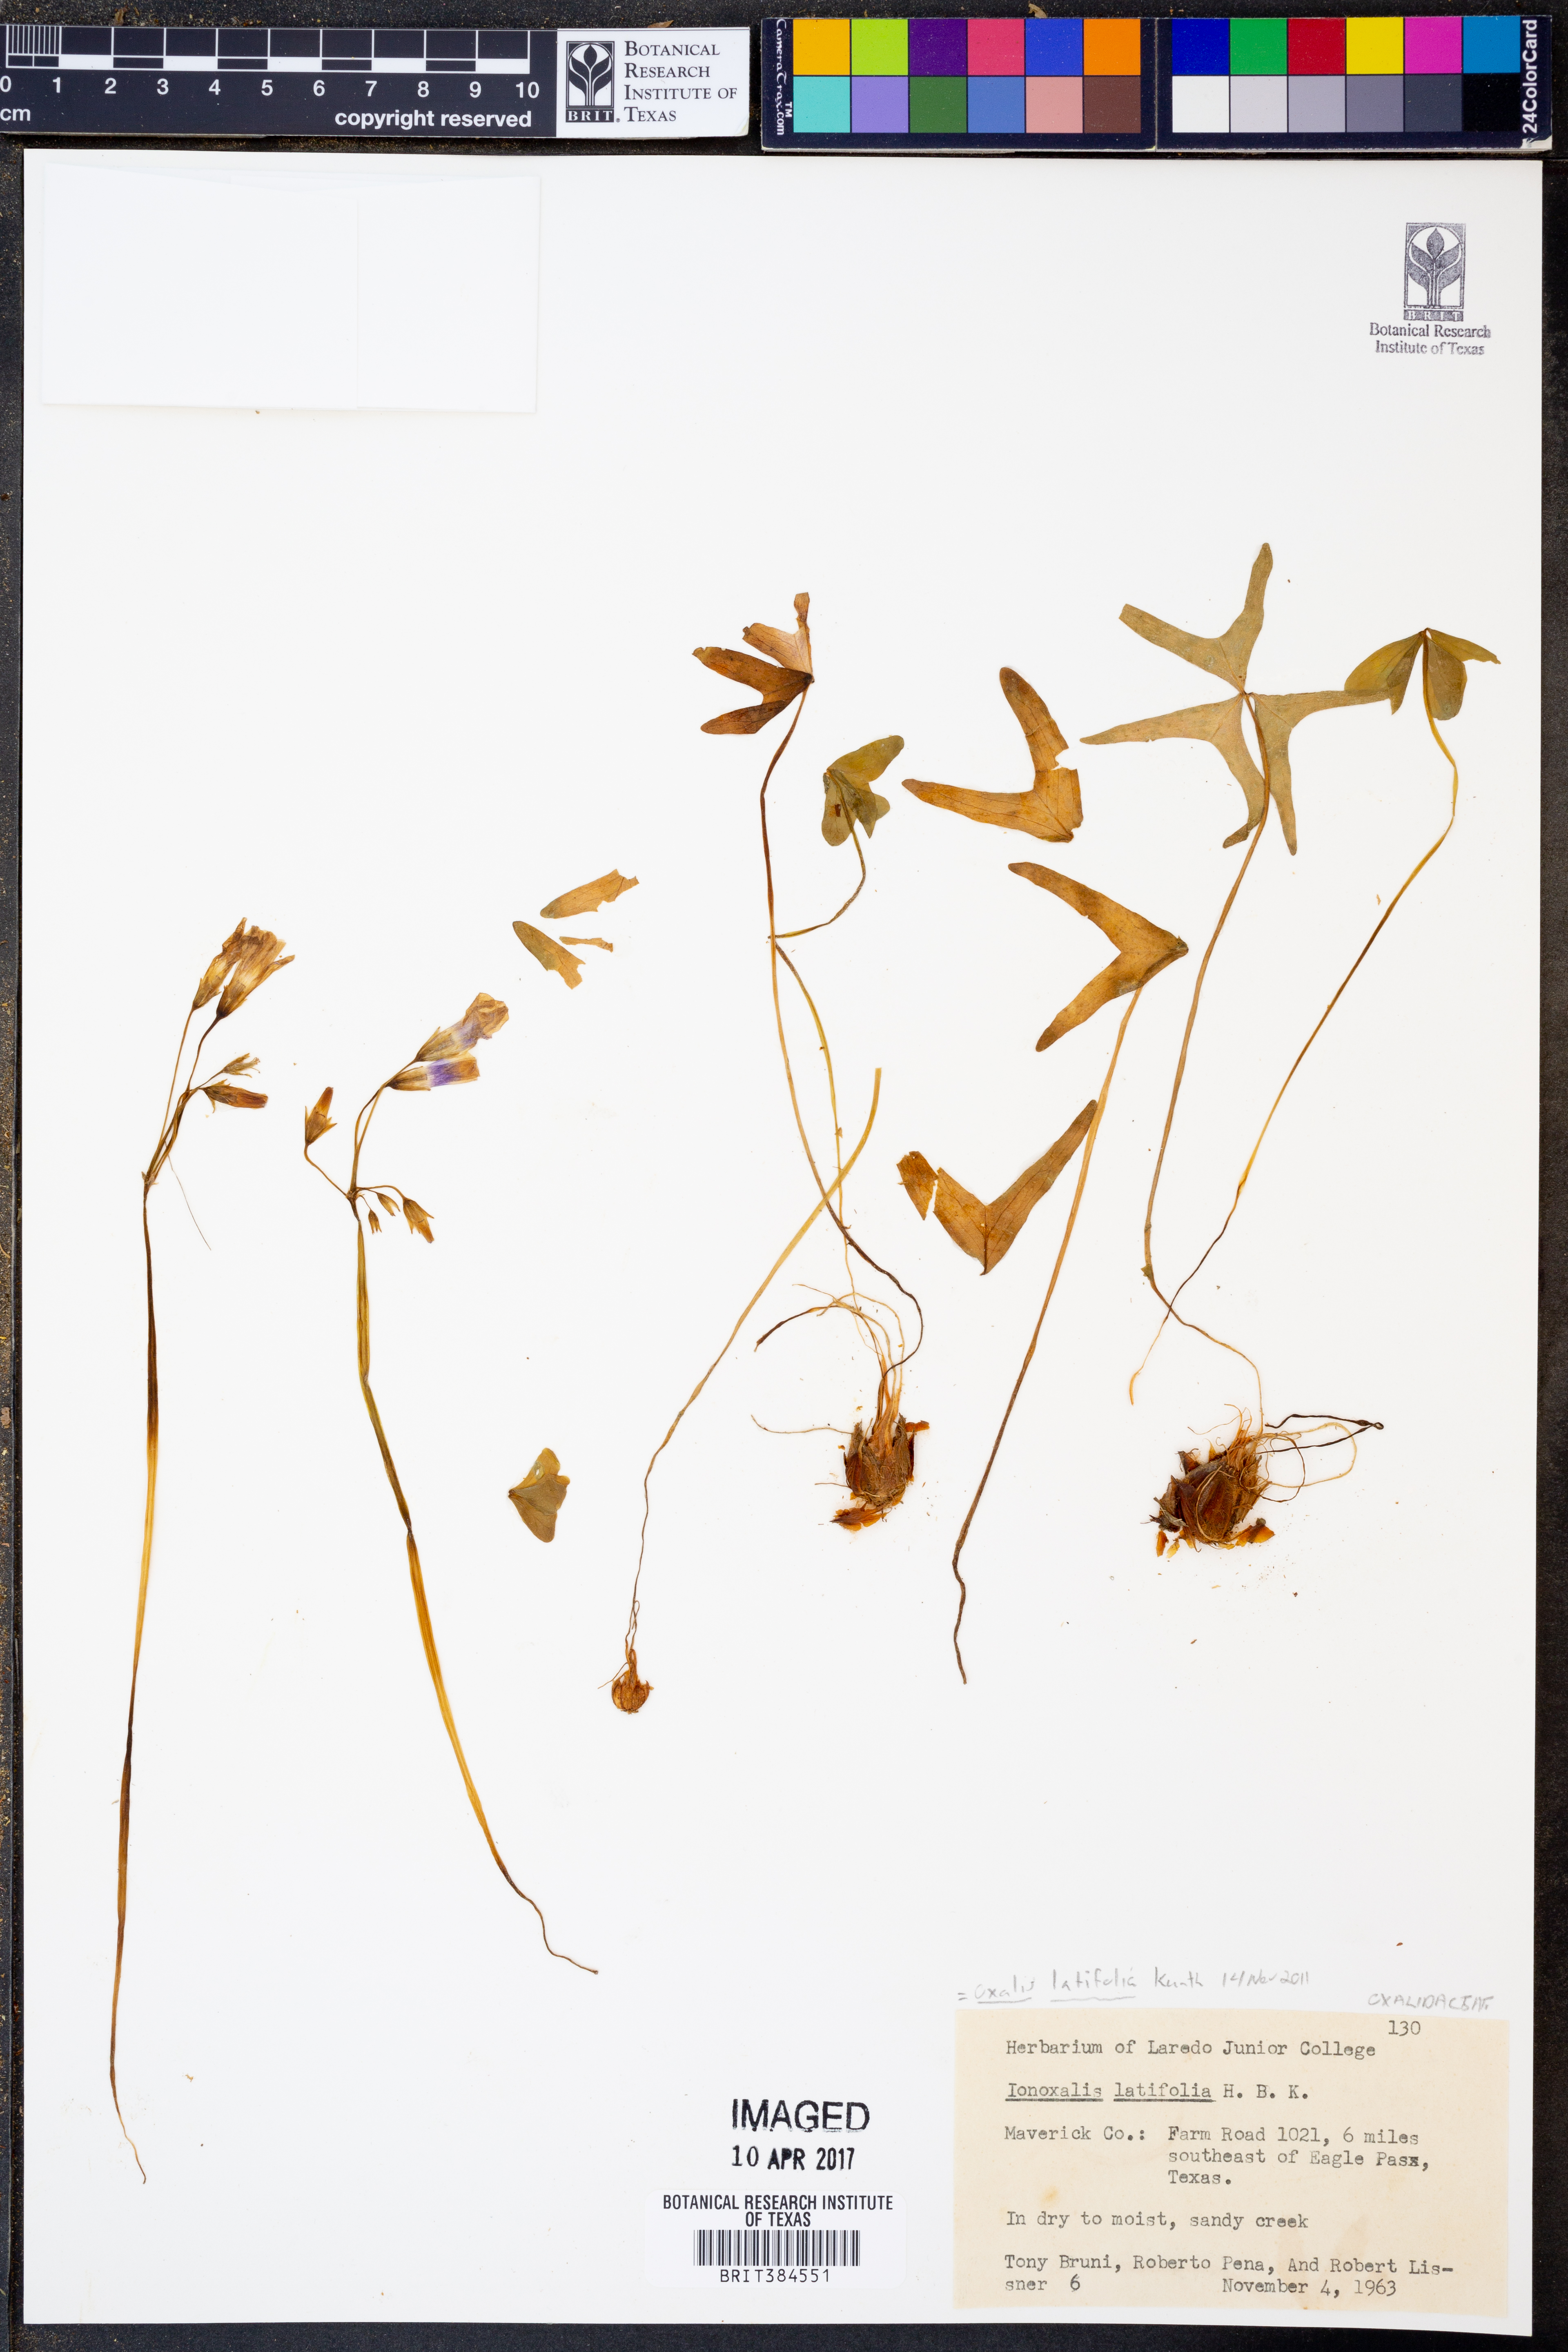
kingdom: Plantae
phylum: Tracheophyta
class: Magnoliopsida
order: Oxalidales
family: Oxalidaceae
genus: Oxalis
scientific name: Oxalis latifolia
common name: Garden pink-sorrel
